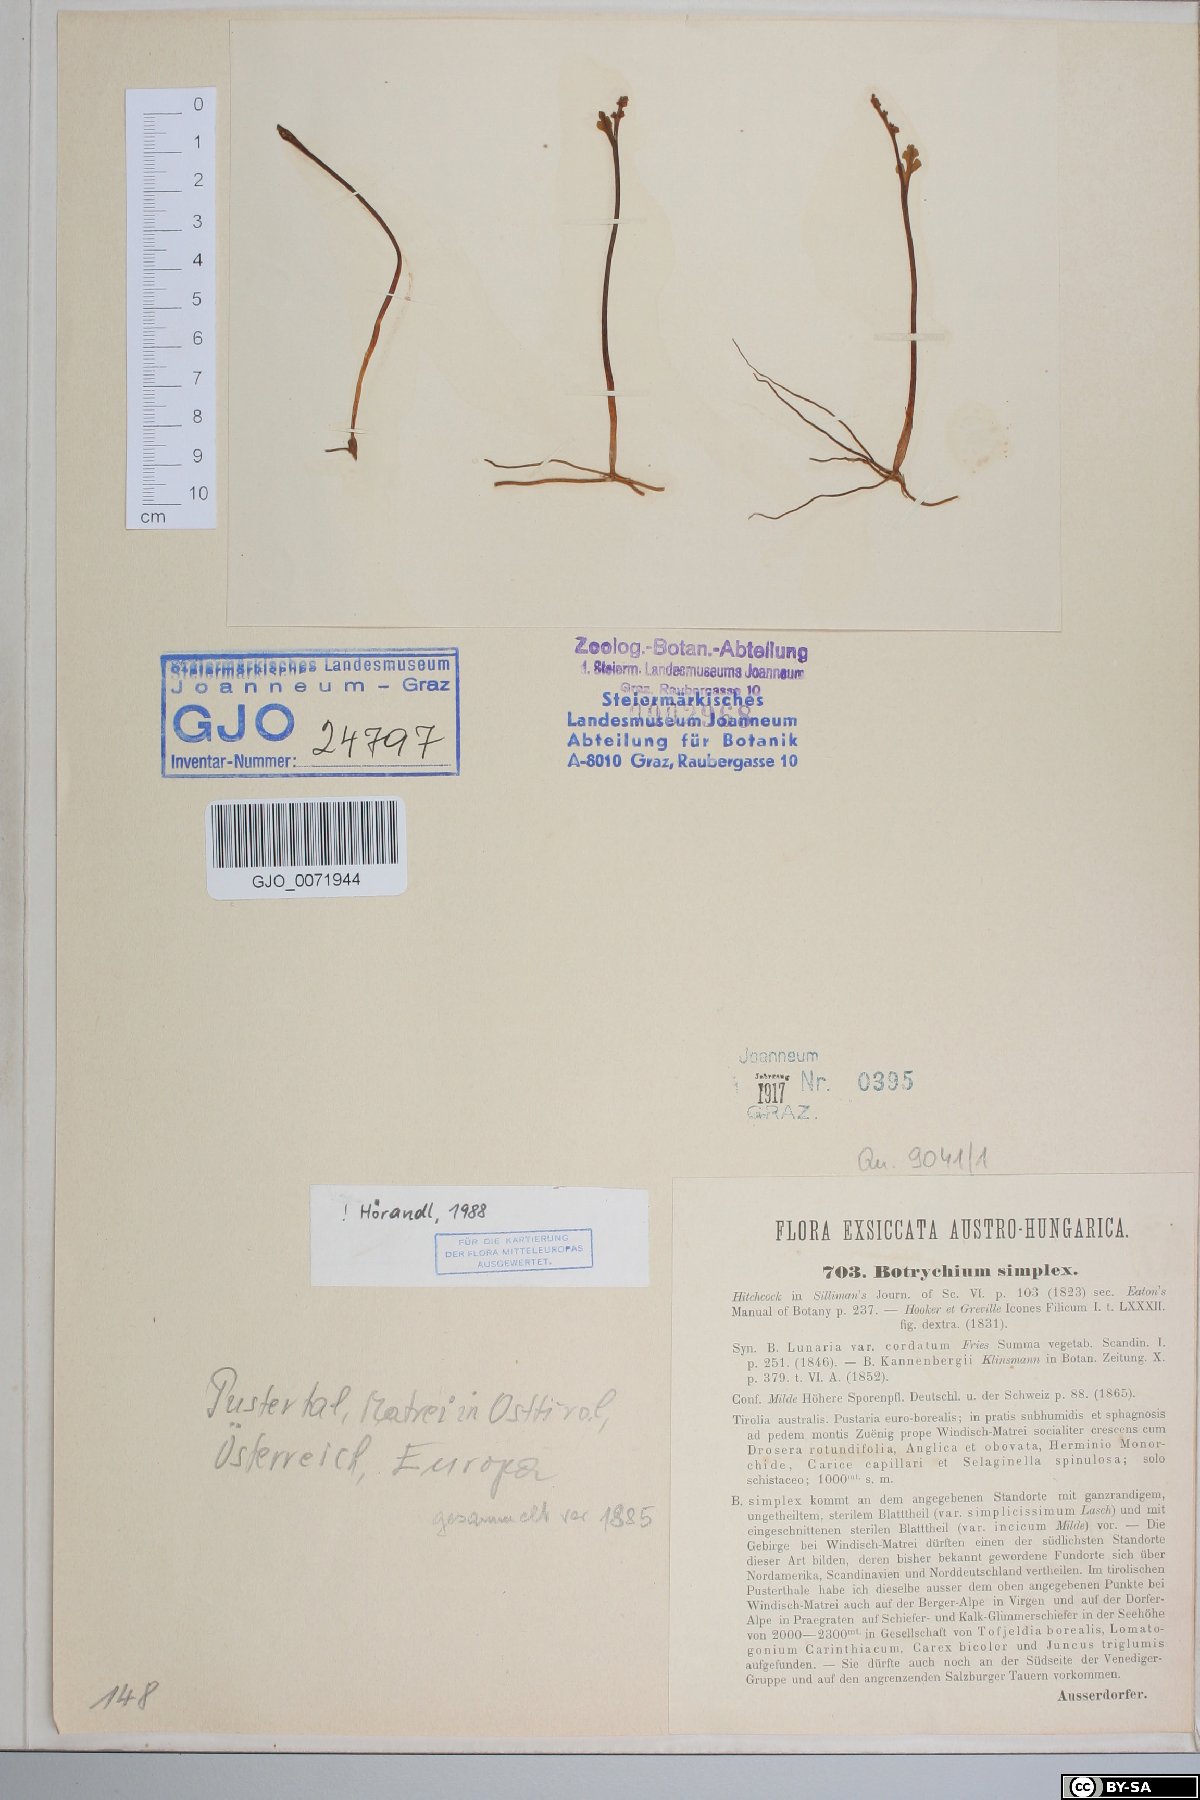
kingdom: Plantae
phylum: Tracheophyta
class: Polypodiopsida
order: Ophioglossales
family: Ophioglossaceae
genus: Botrychium
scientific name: Botrychium simplex
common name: Least moonwort
